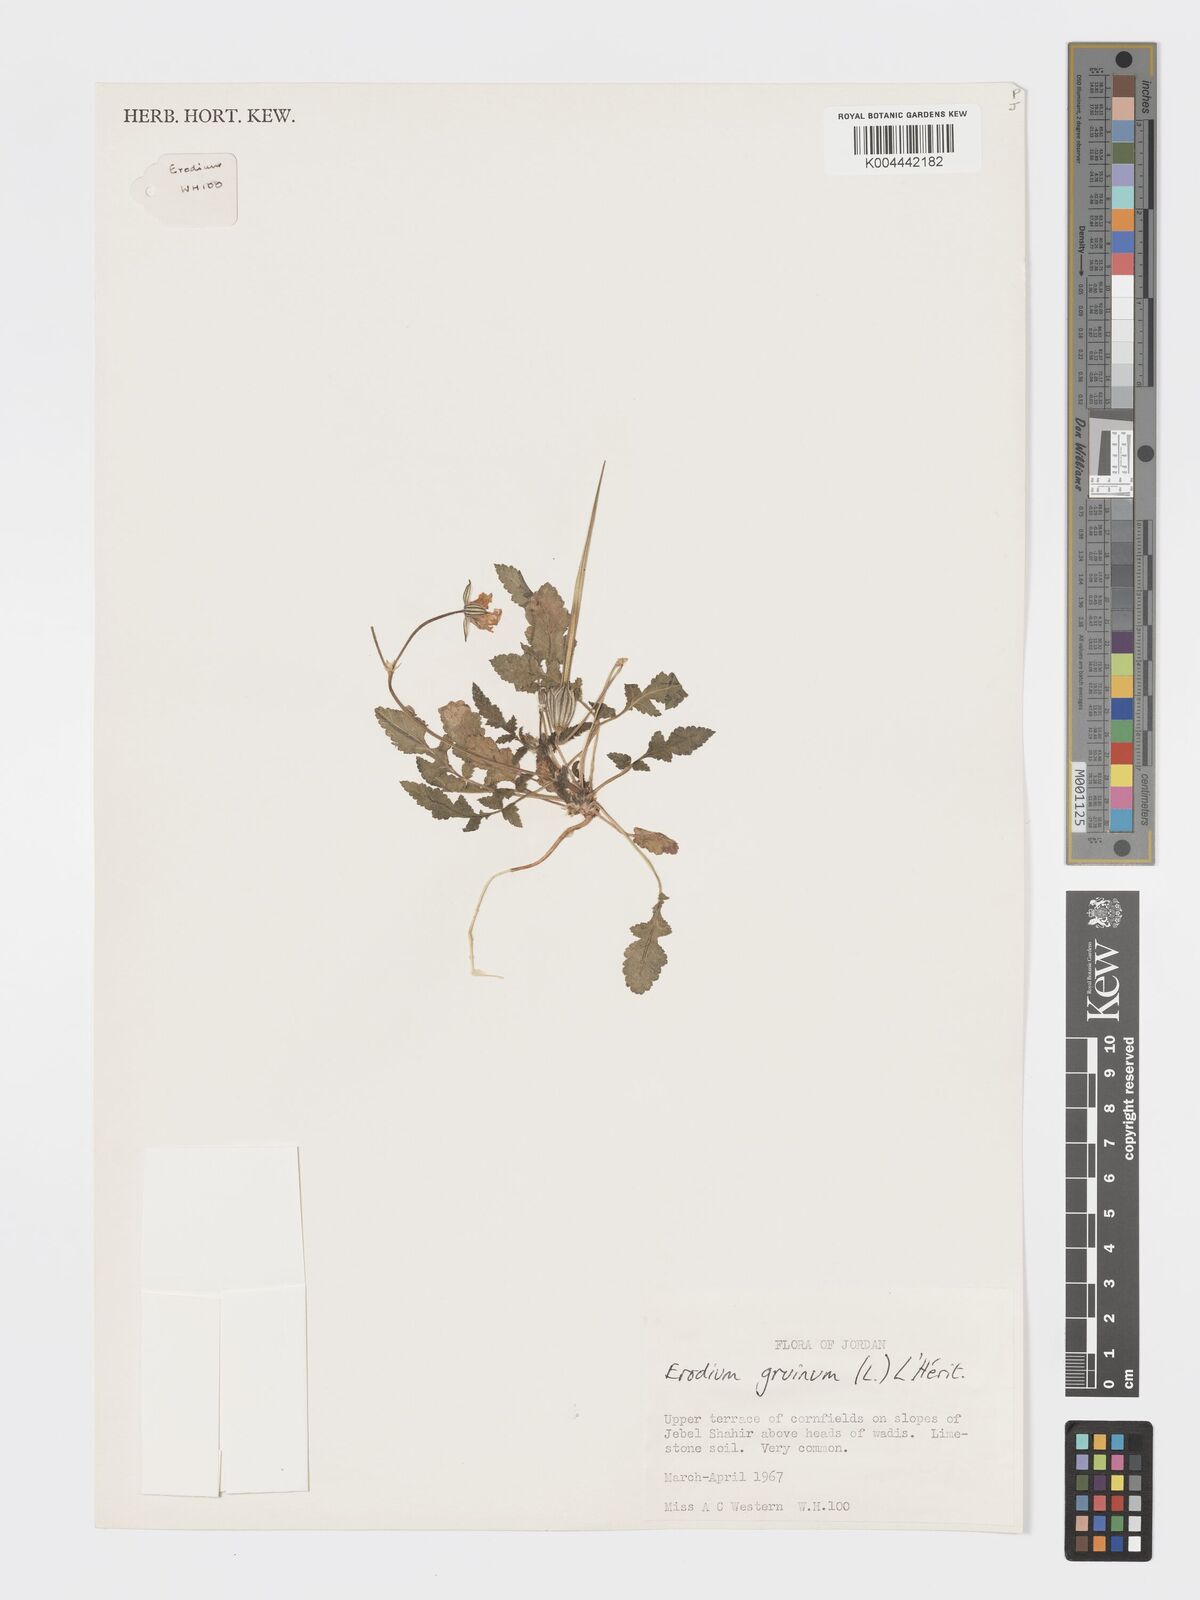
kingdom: Plantae
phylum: Tracheophyta
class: Magnoliopsida
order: Geraniales
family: Geraniaceae
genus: Erodium
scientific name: Erodium gruinum
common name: Iranian stork's bill
